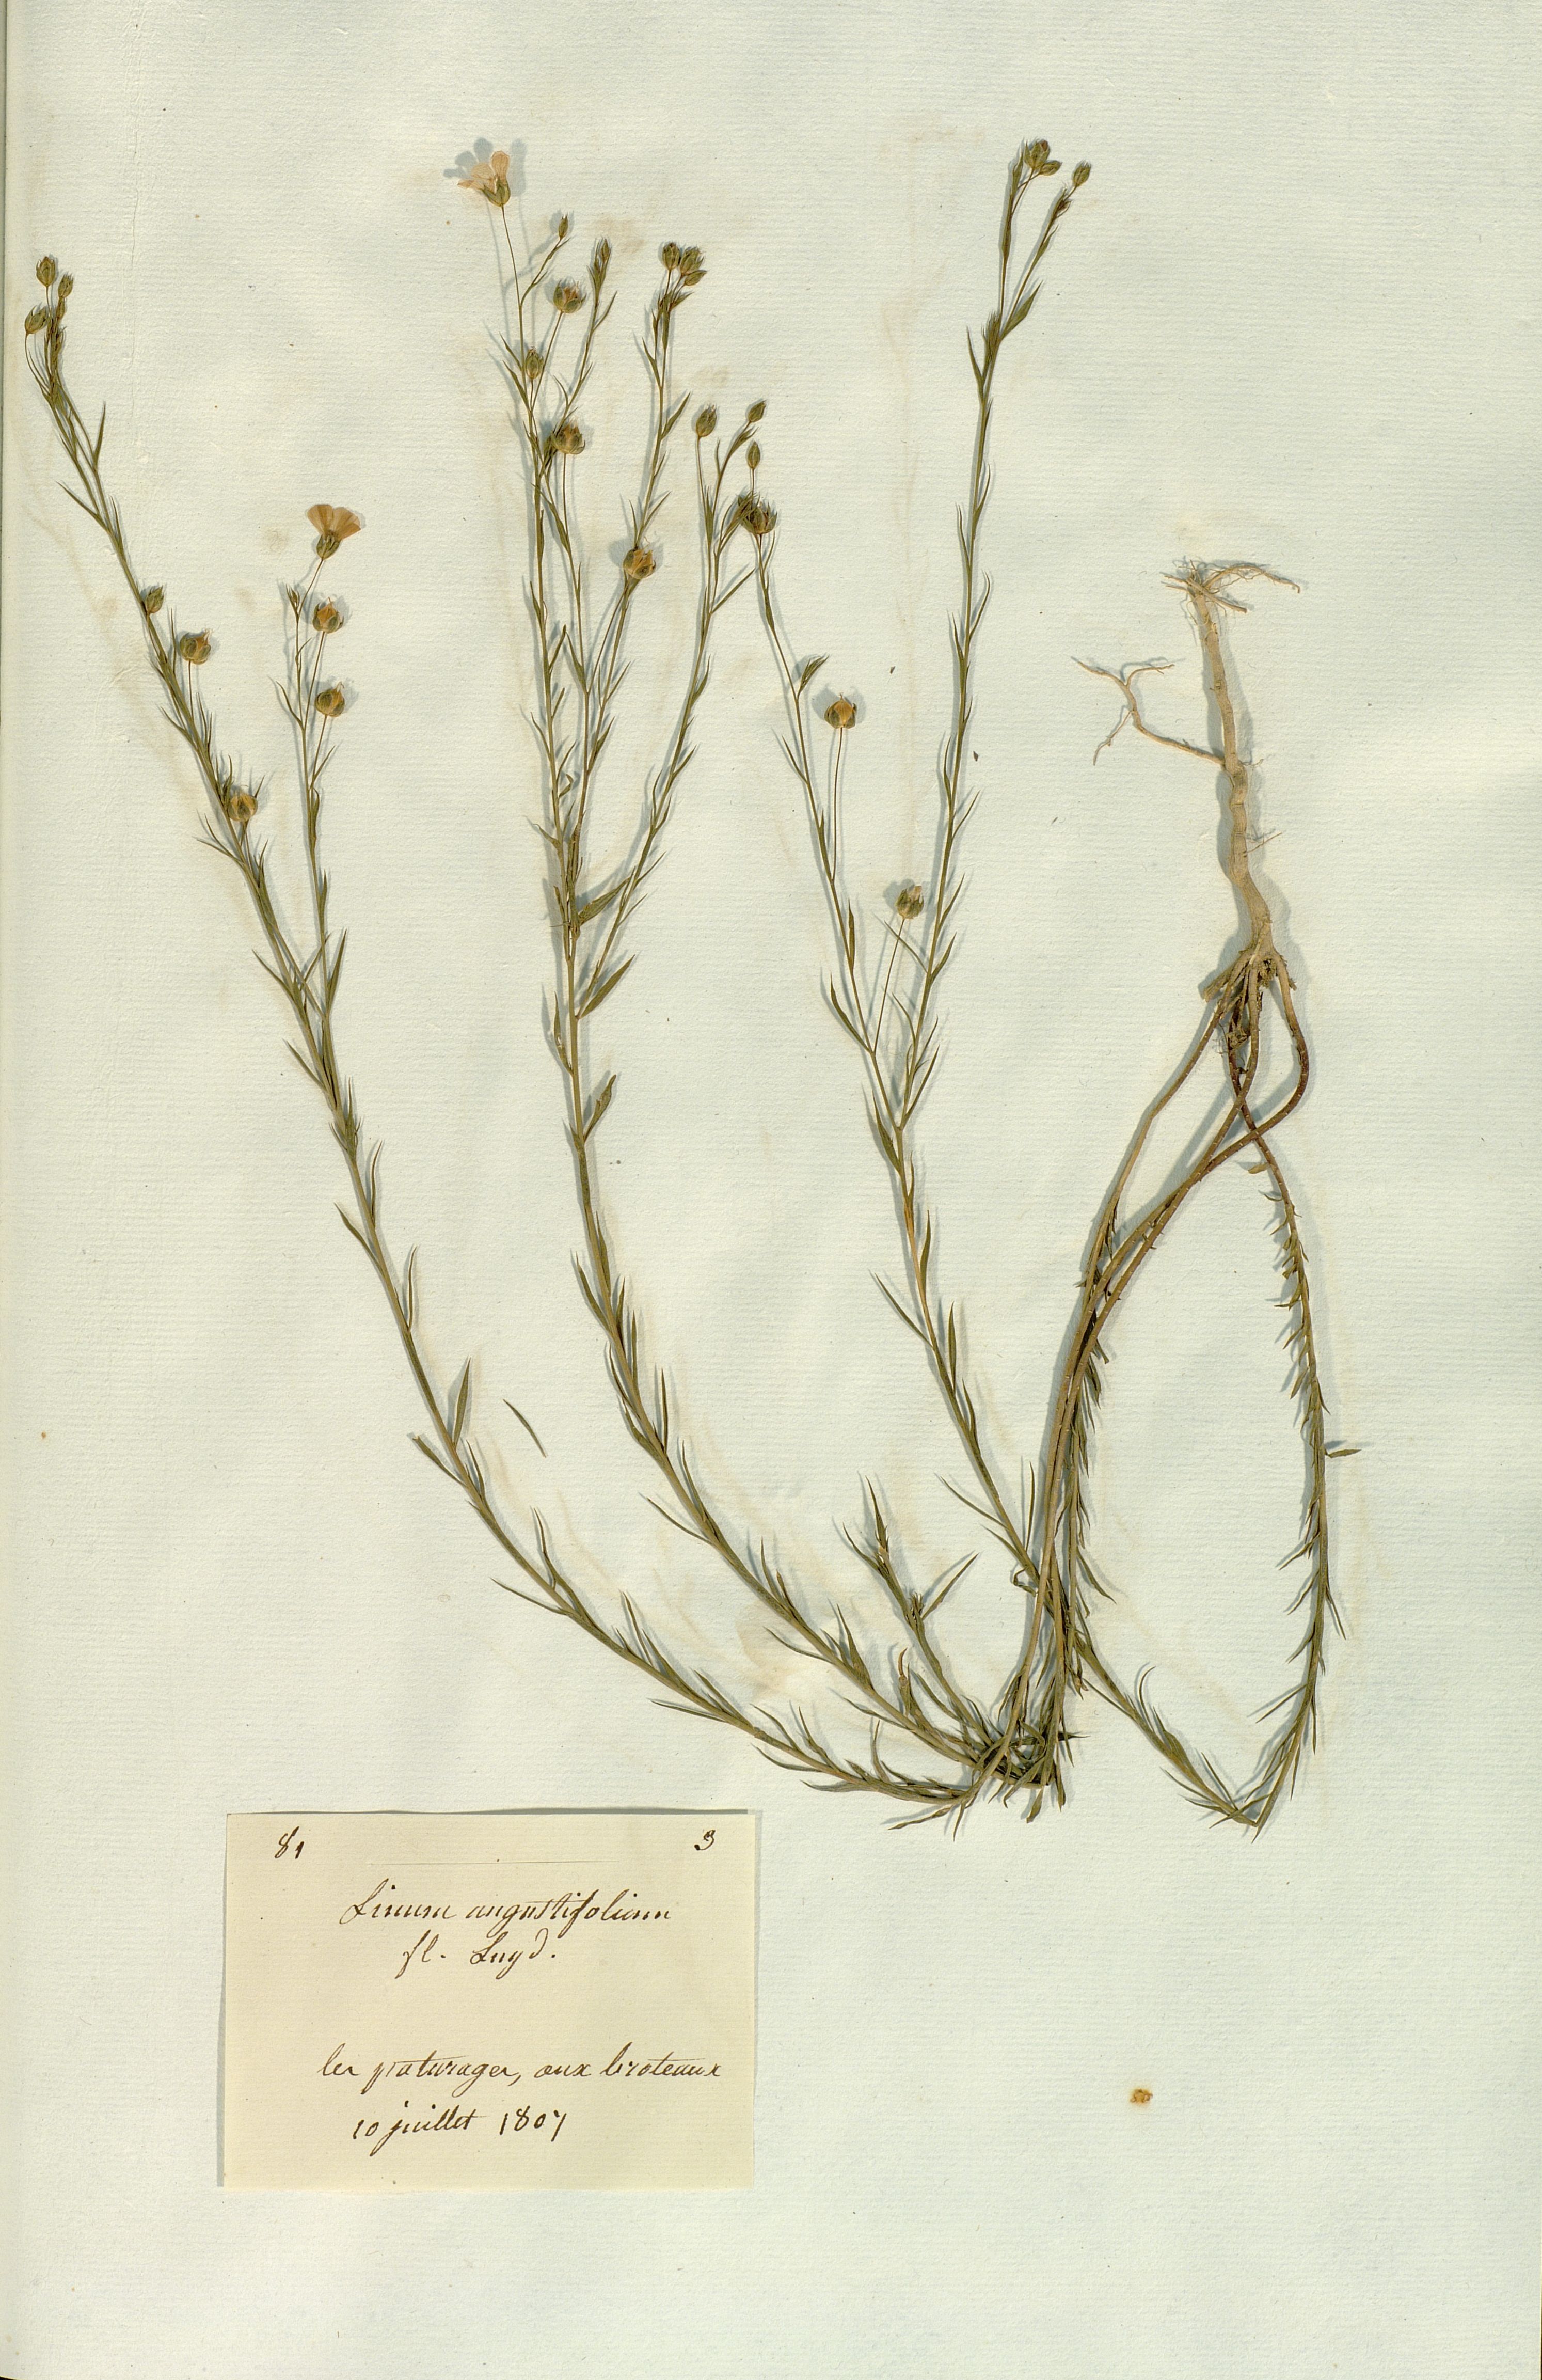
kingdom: Plantae
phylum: Tracheophyta
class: Magnoliopsida
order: Malpighiales
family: Linaceae
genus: Linum
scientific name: Linum
